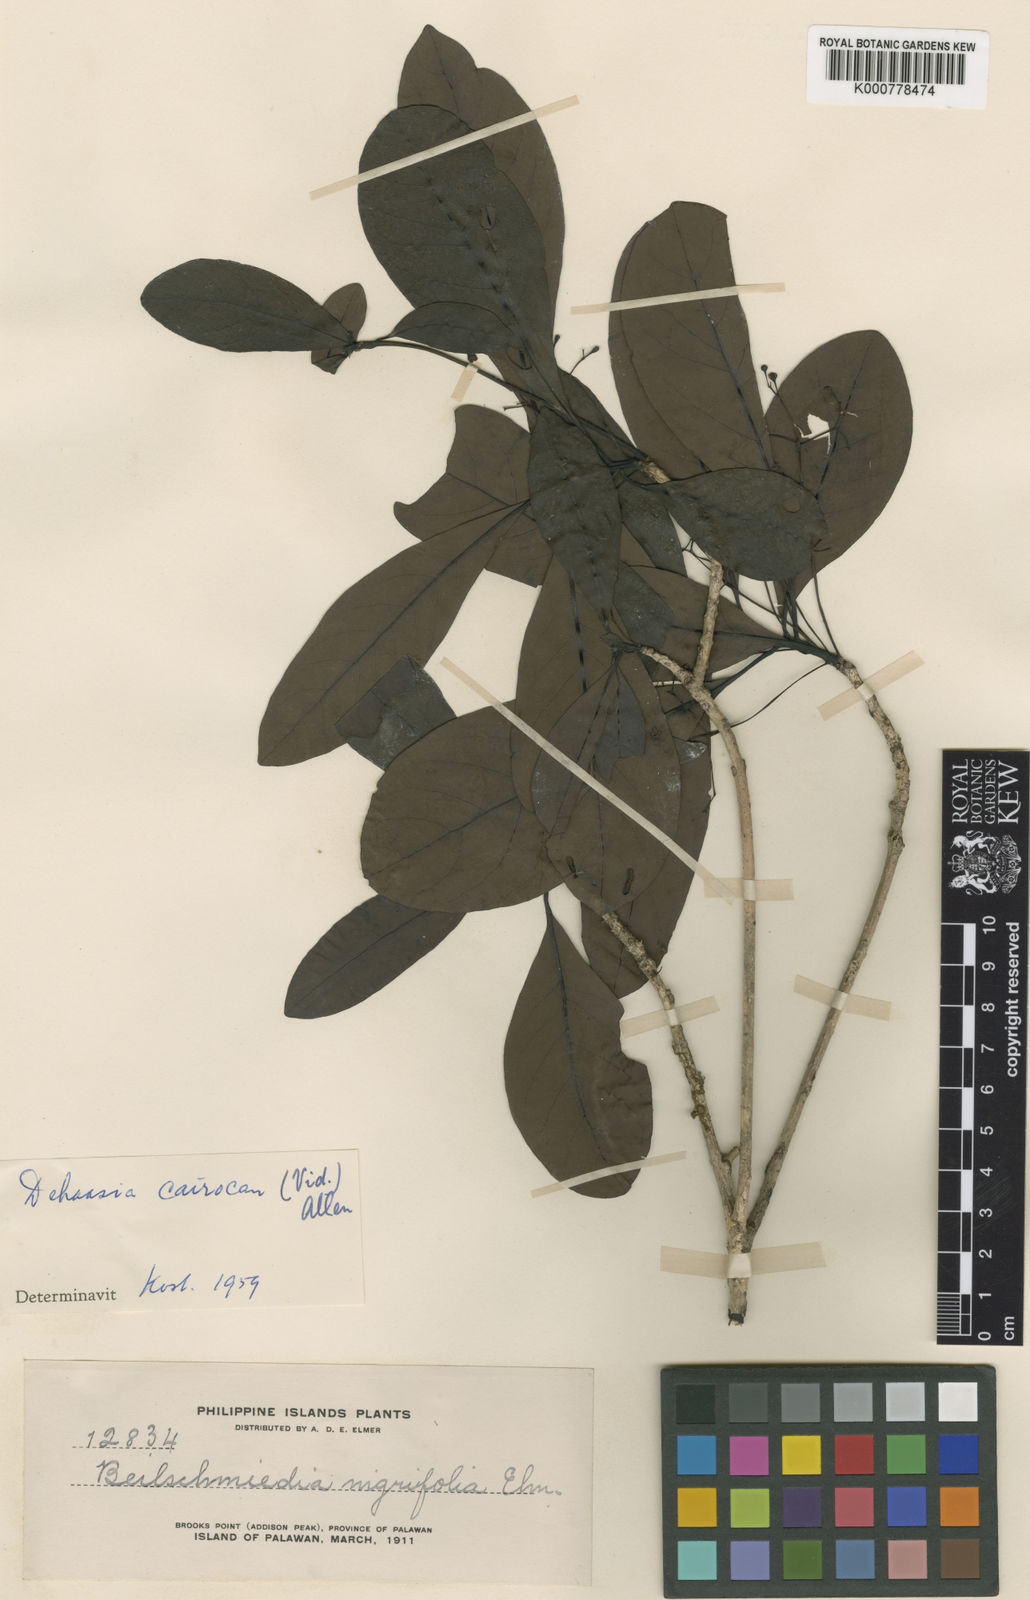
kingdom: Plantae
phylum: Tracheophyta
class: Magnoliopsida
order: Laurales
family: Lauraceae
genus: Dehaasia
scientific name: Dehaasia cairocan
